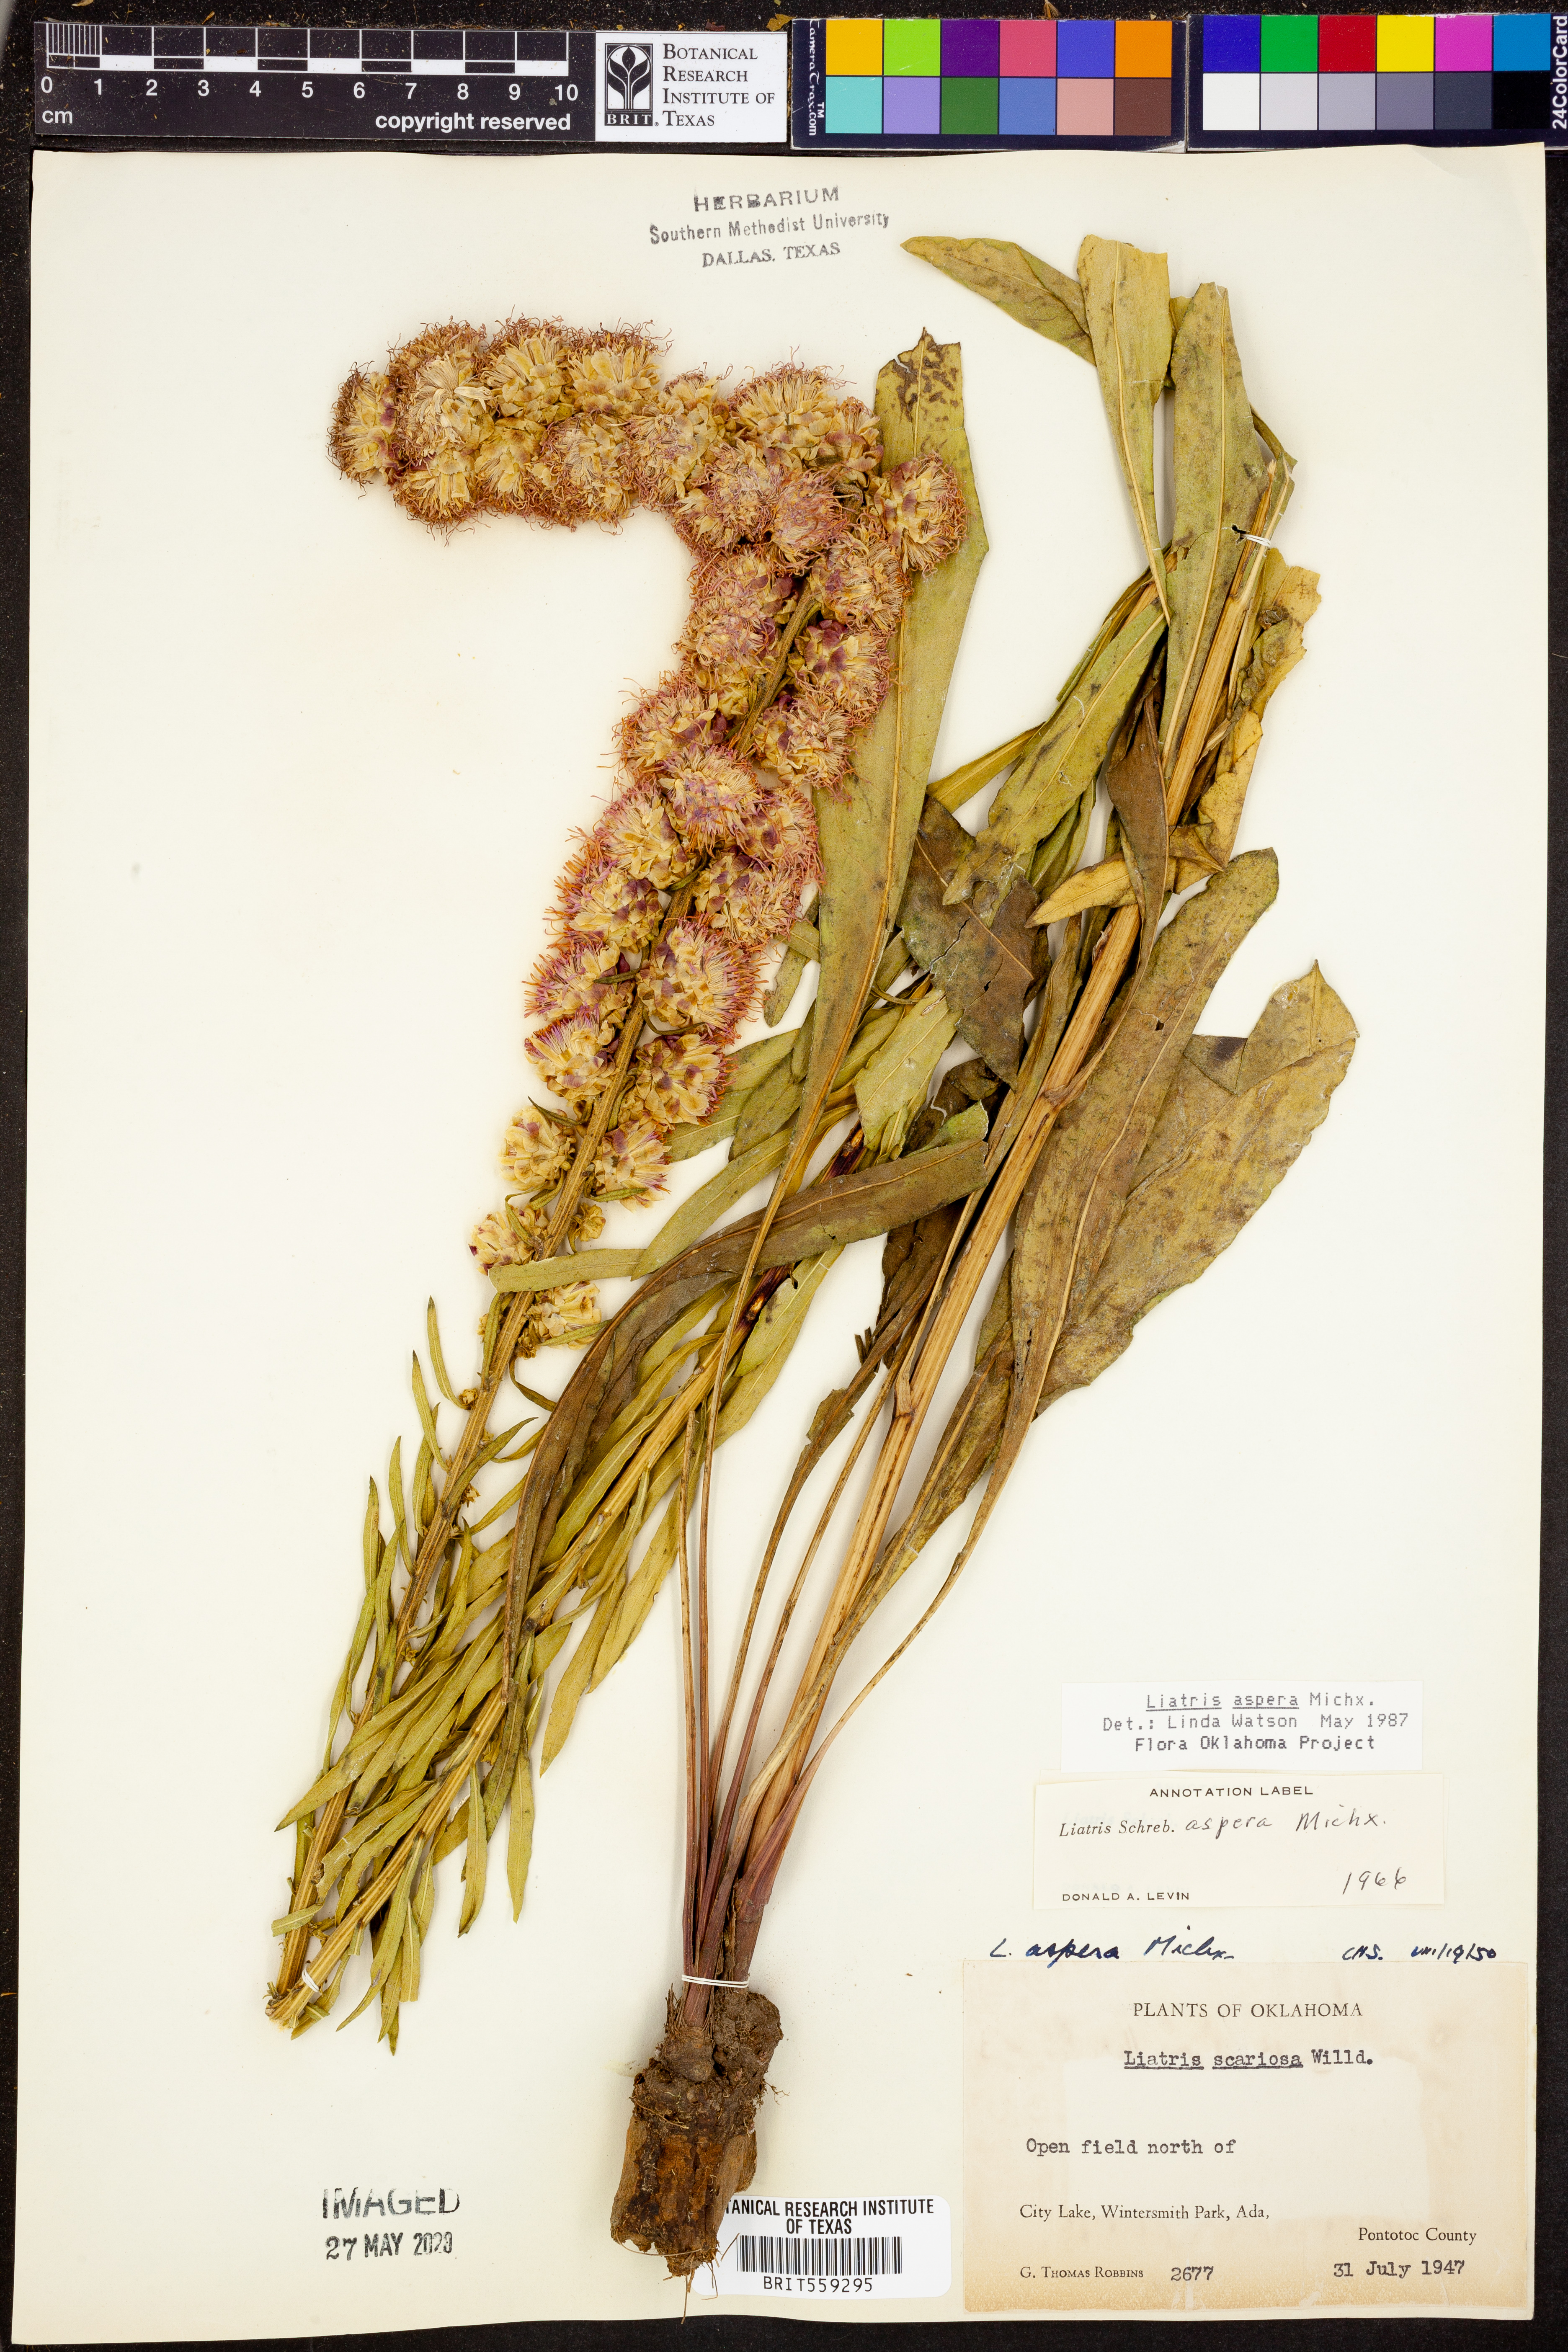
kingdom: Plantae
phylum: Tracheophyta
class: Magnoliopsida
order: Asterales
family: Asteraceae
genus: Liatris
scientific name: Liatris aspera
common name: Lacerate blazing-star
